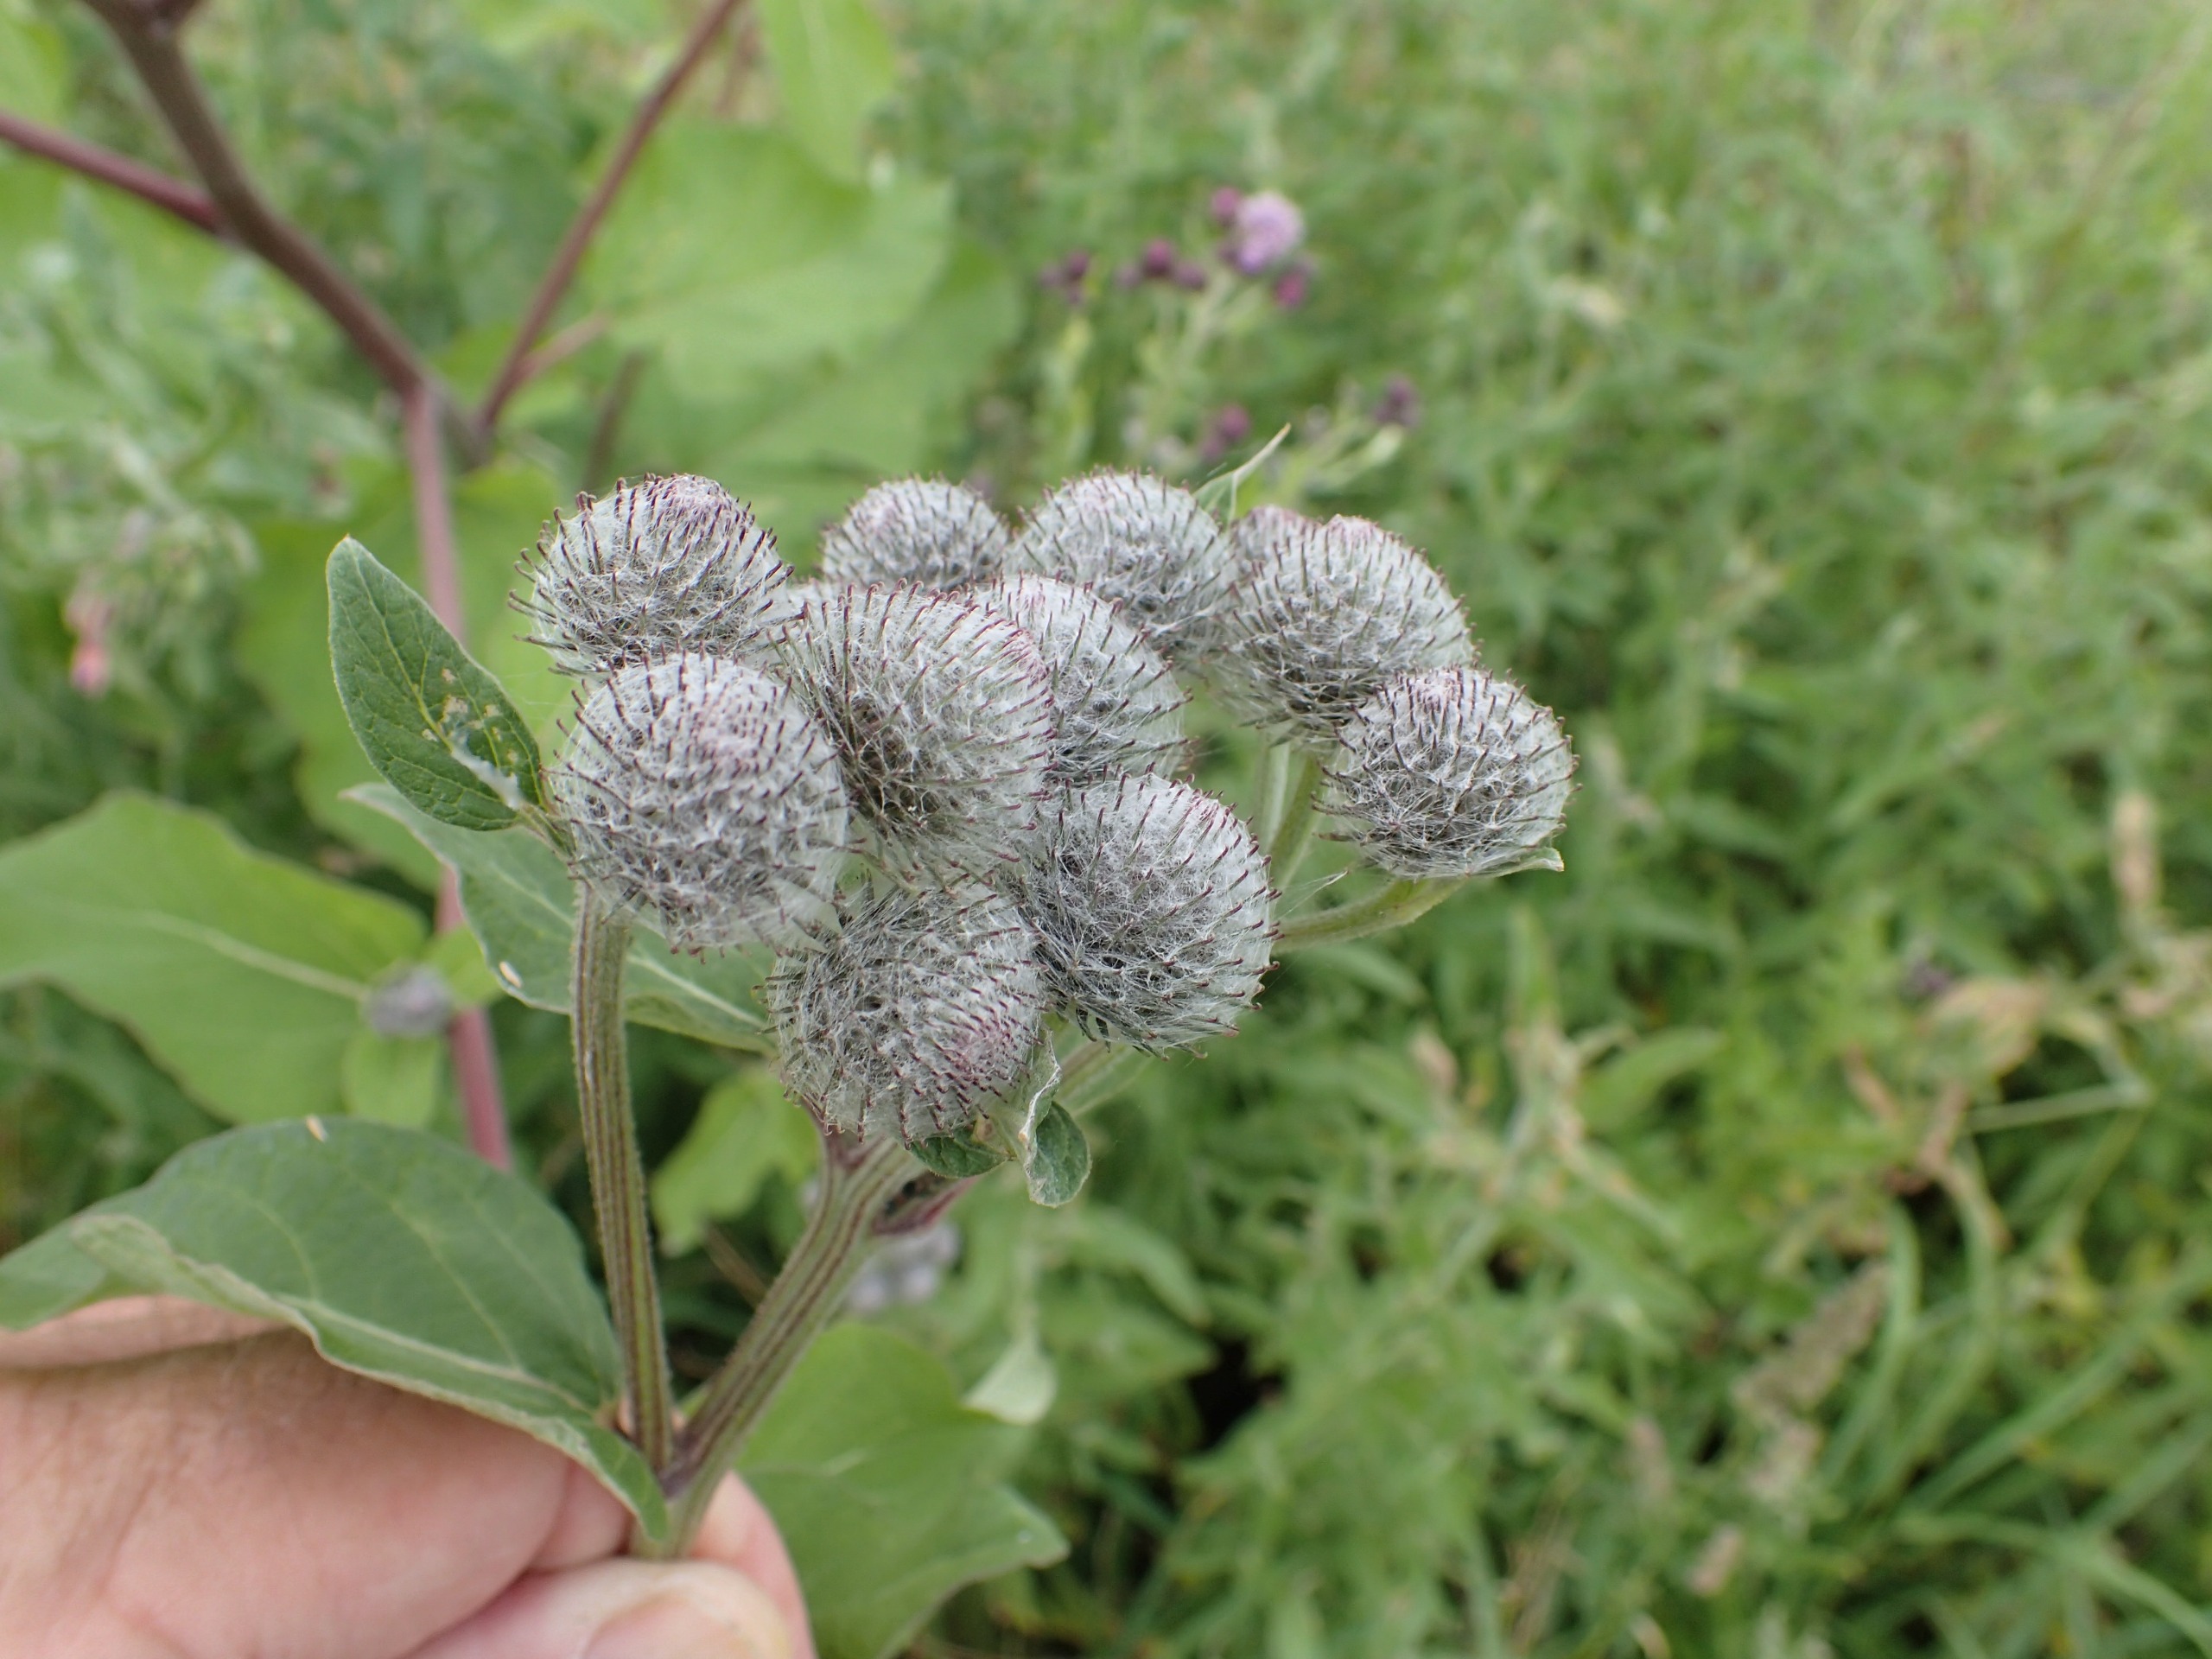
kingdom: Plantae
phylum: Tracheophyta
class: Magnoliopsida
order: Asterales
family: Asteraceae
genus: Arctium
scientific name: Arctium tomentosum
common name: Filtet burre
